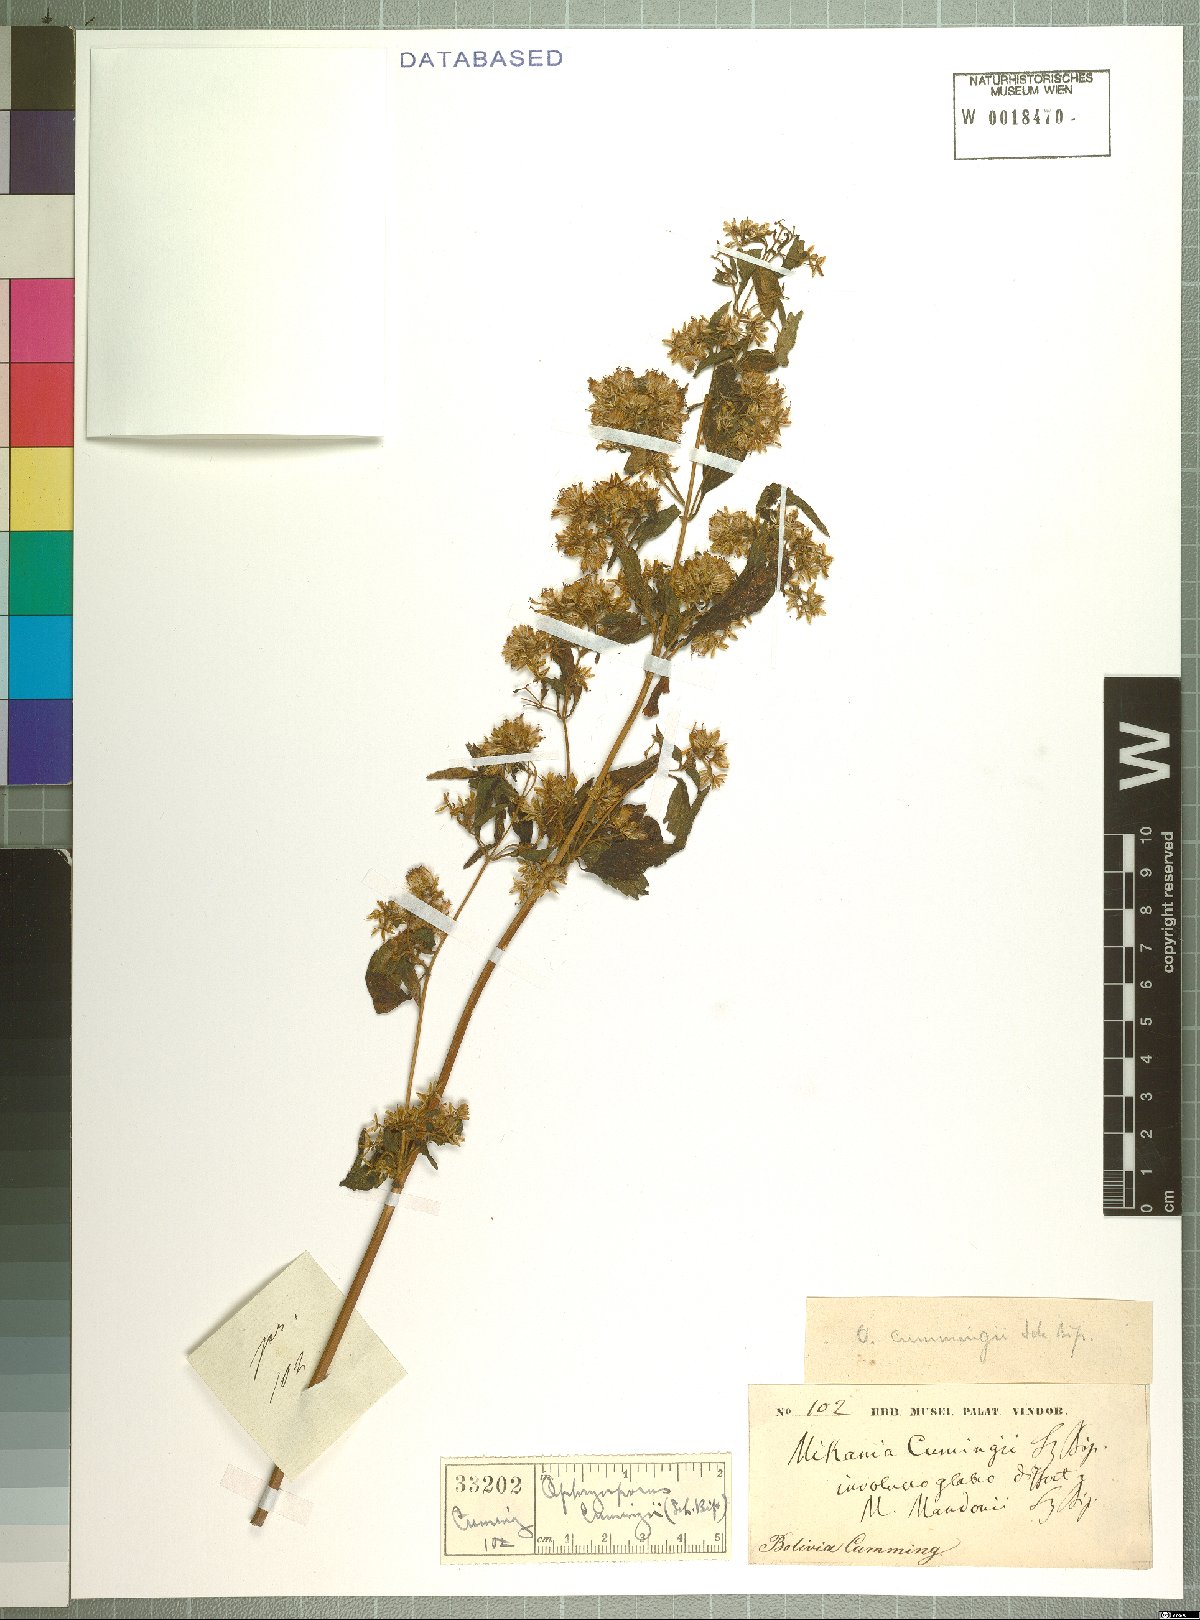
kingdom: Plantae
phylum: Tracheophyta
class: Magnoliopsida
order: Asterales
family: Asteraceae
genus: Ophryosporus
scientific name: Ophryosporus cumingii
